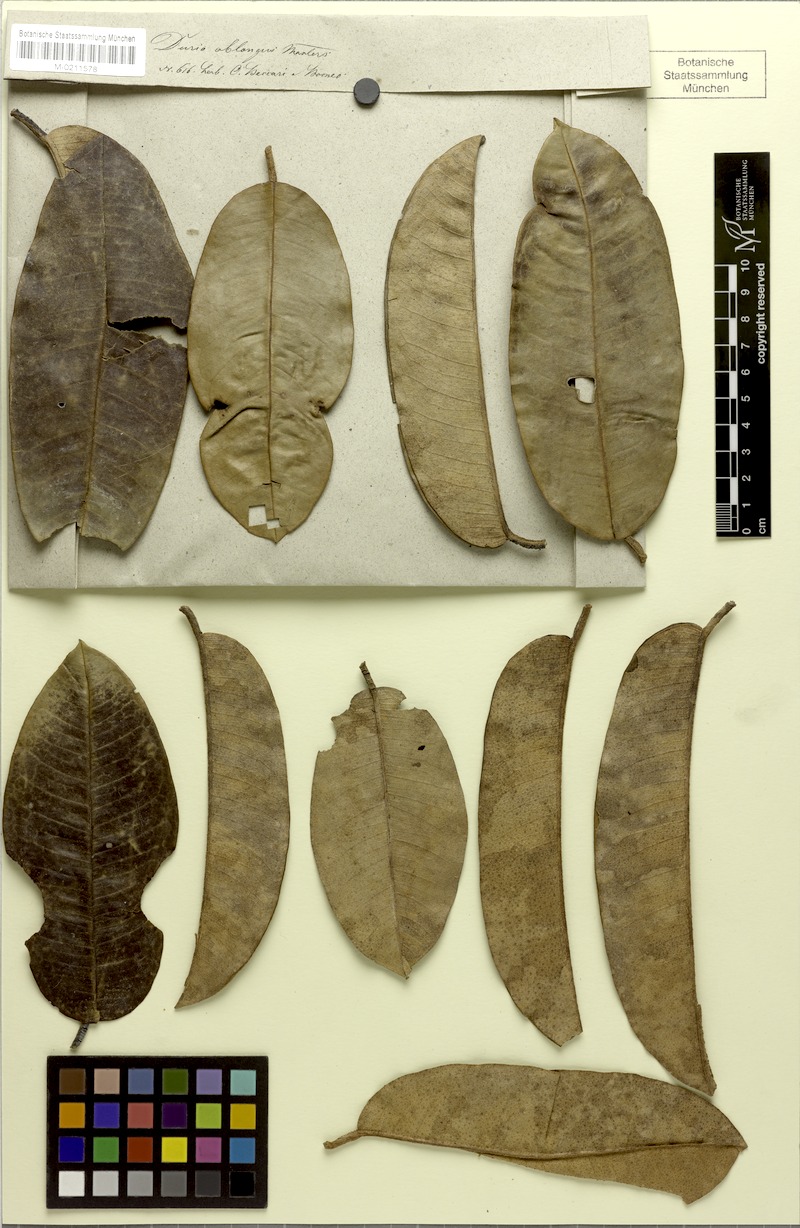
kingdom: Plantae
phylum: Tracheophyta
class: Magnoliopsida
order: Malvales
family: Malvaceae
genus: Durio
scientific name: Durio oblongus
